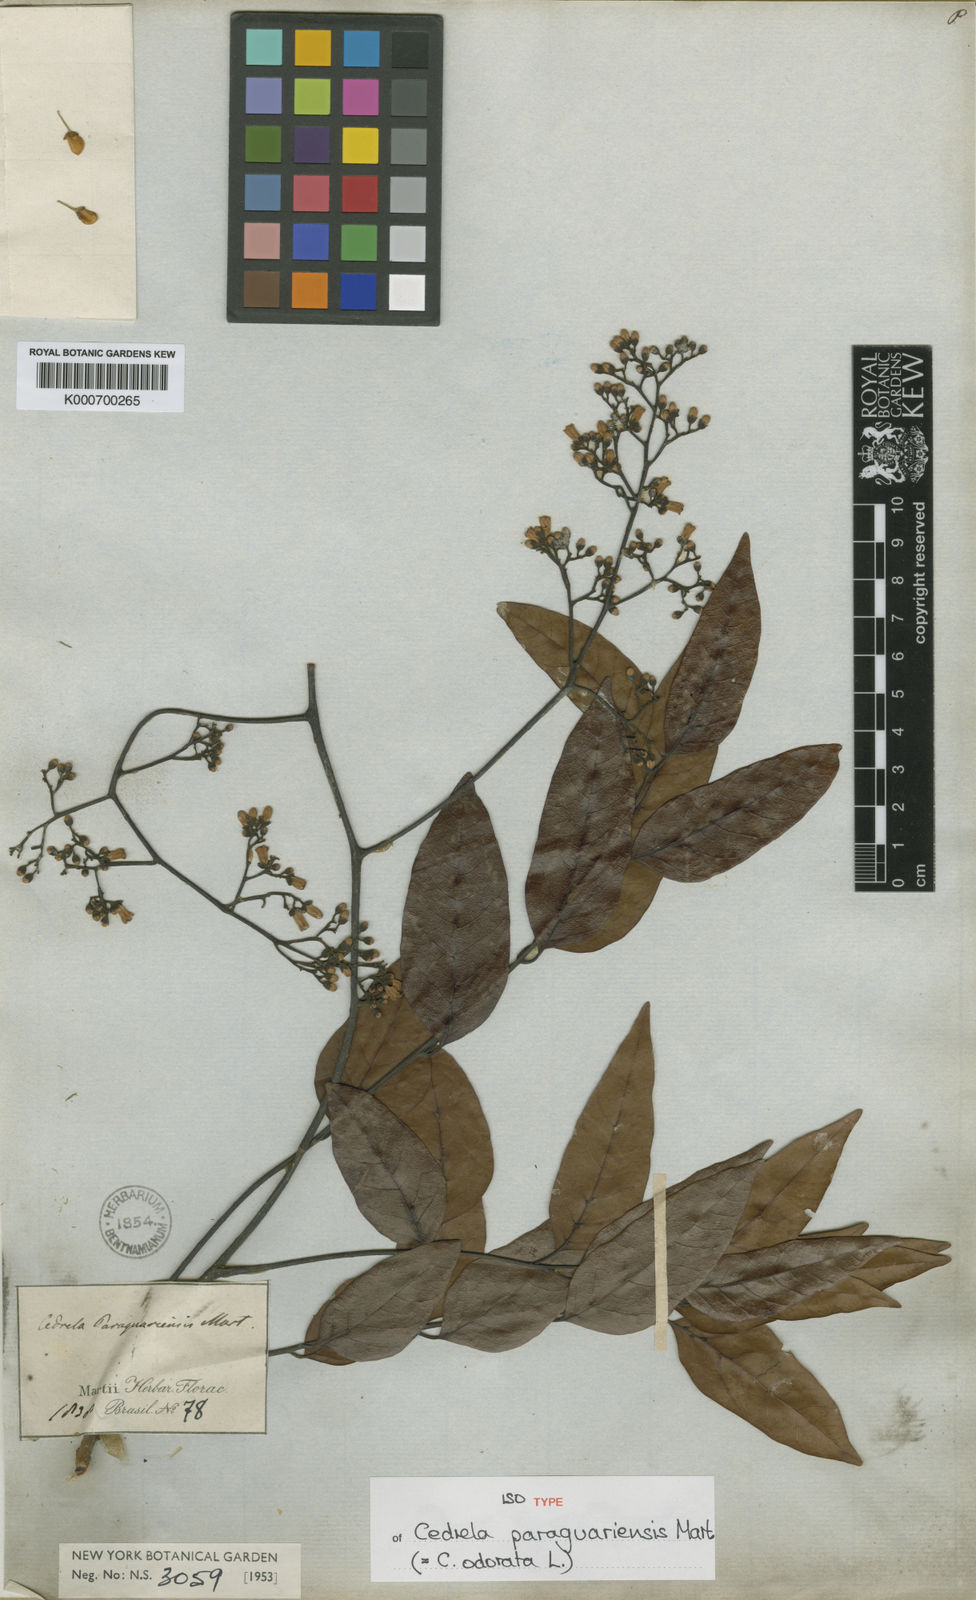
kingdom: Plantae
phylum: Tracheophyta
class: Magnoliopsida
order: Sapindales
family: Meliaceae
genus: Cedrela
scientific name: Cedrela odorata
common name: Red cedar
